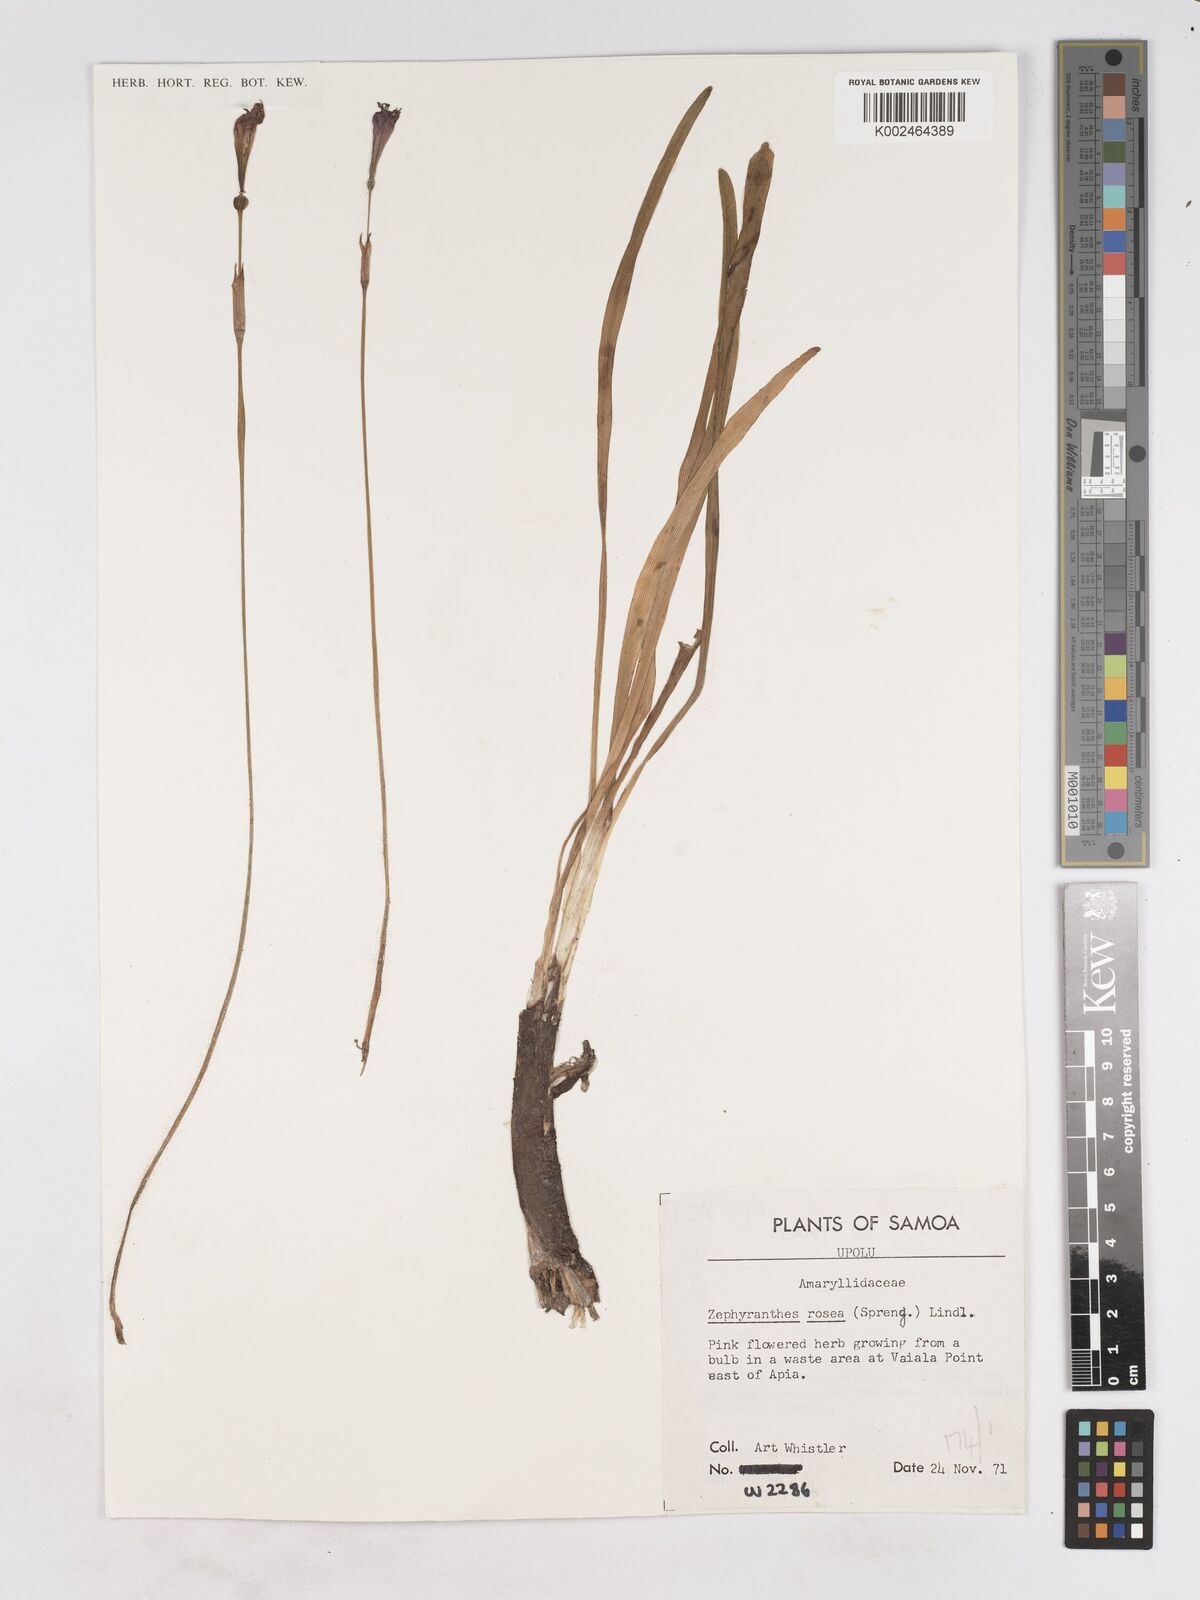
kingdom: Plantae
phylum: Tracheophyta
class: Liliopsida
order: Asparagales
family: Amaryllidaceae
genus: Zephyranthes
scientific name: Zephyranthes rosea
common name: Cuban zephyrlily
